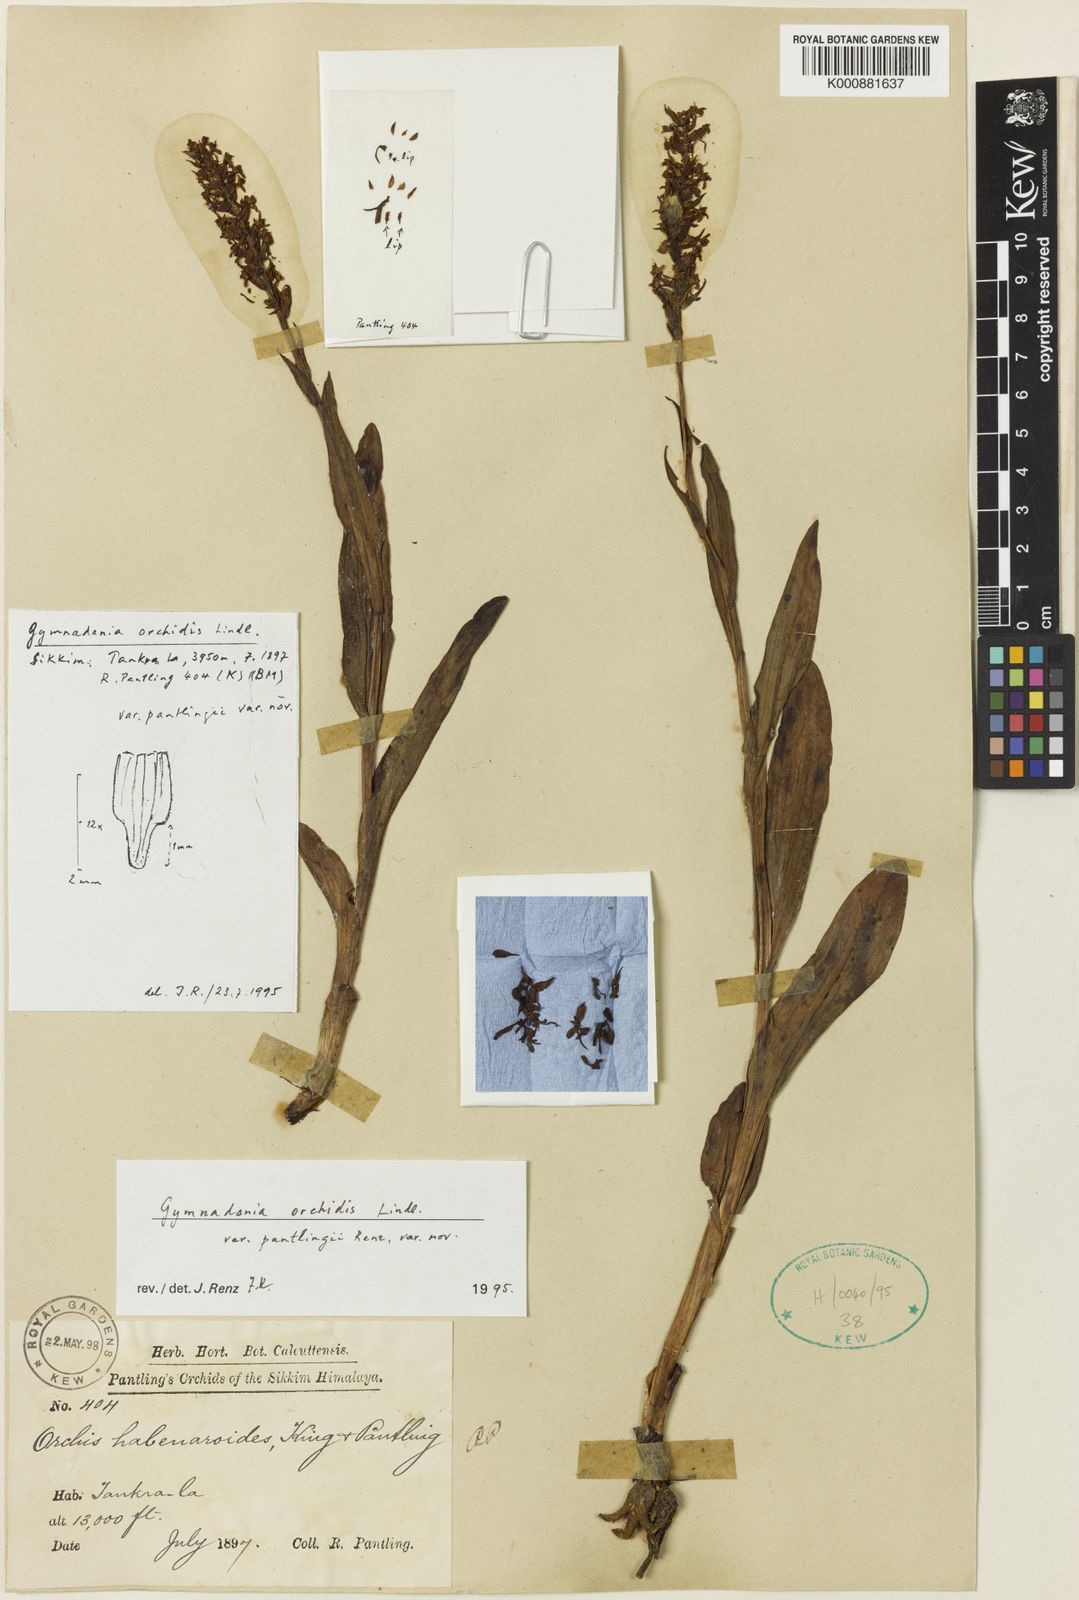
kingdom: Plantae
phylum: Tracheophyta
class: Liliopsida
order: Asparagales
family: Orchidaceae
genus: Gymnadenia
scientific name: Gymnadenia orchidis
